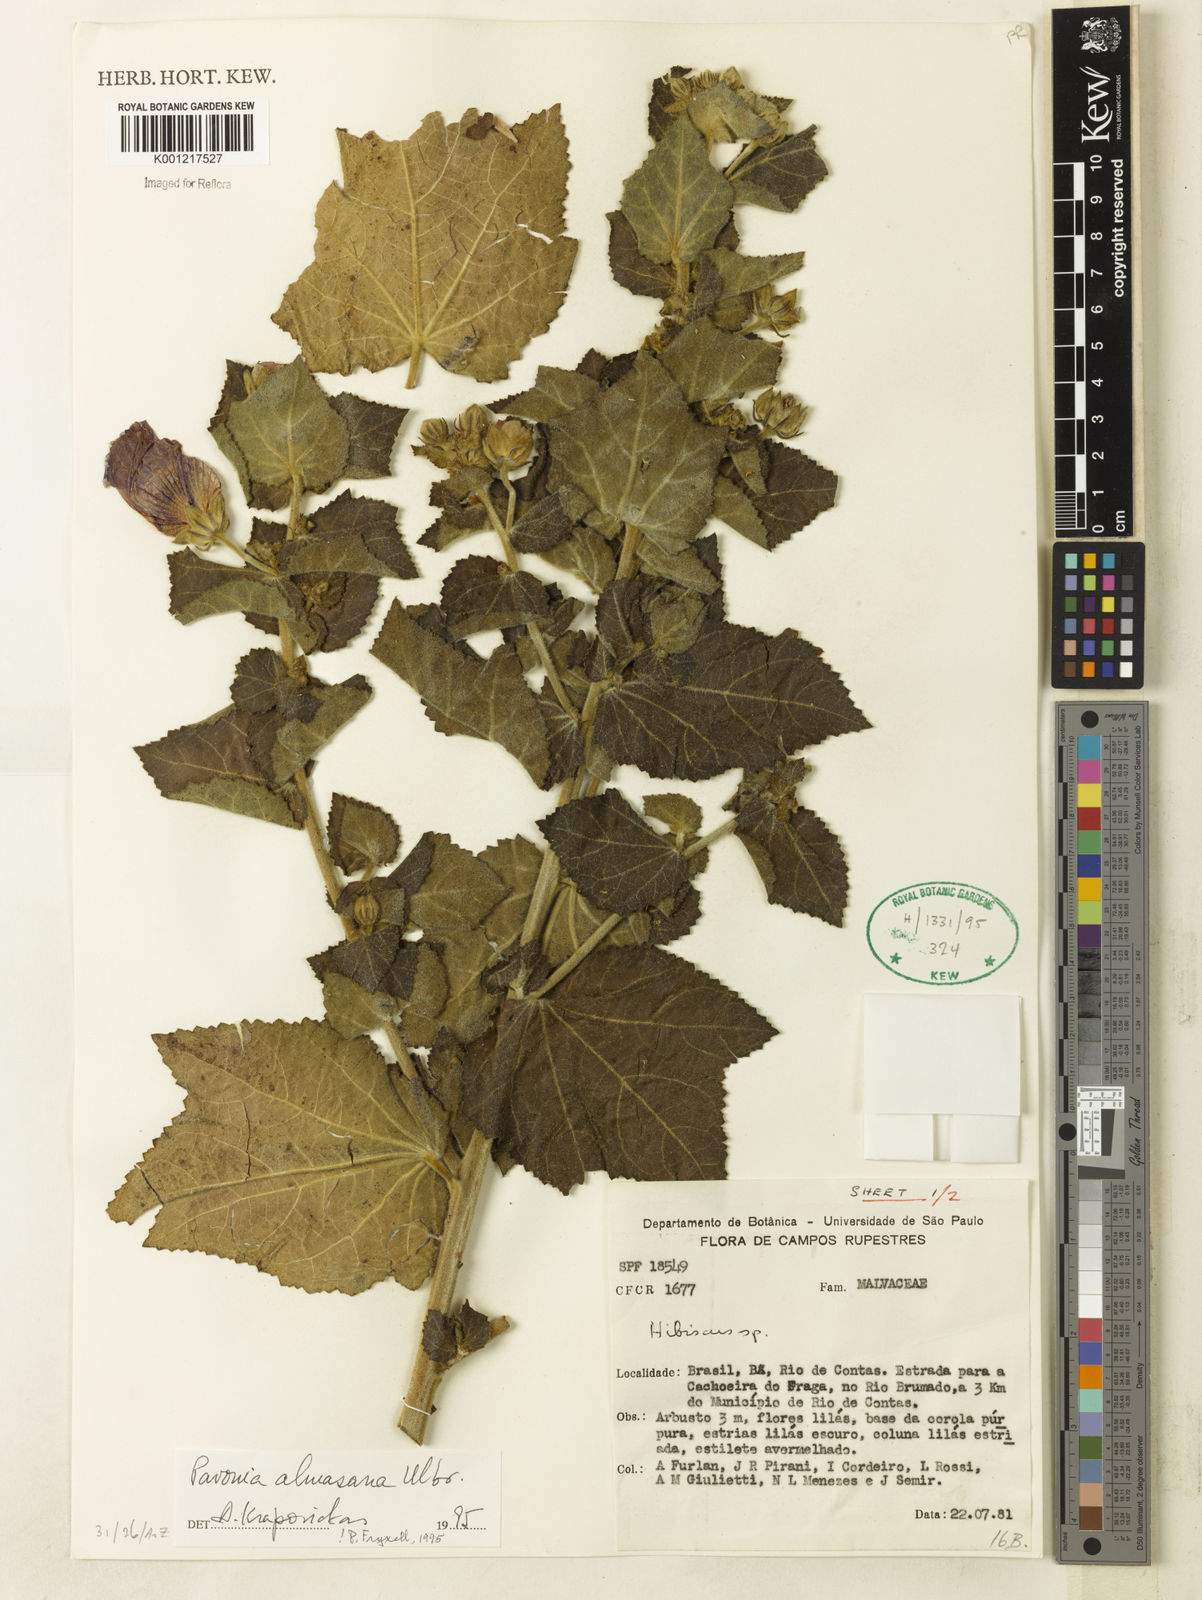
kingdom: Plantae
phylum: Tracheophyta
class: Magnoliopsida
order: Malvales
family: Malvaceae
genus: Pavonia
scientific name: Pavonia almasana
